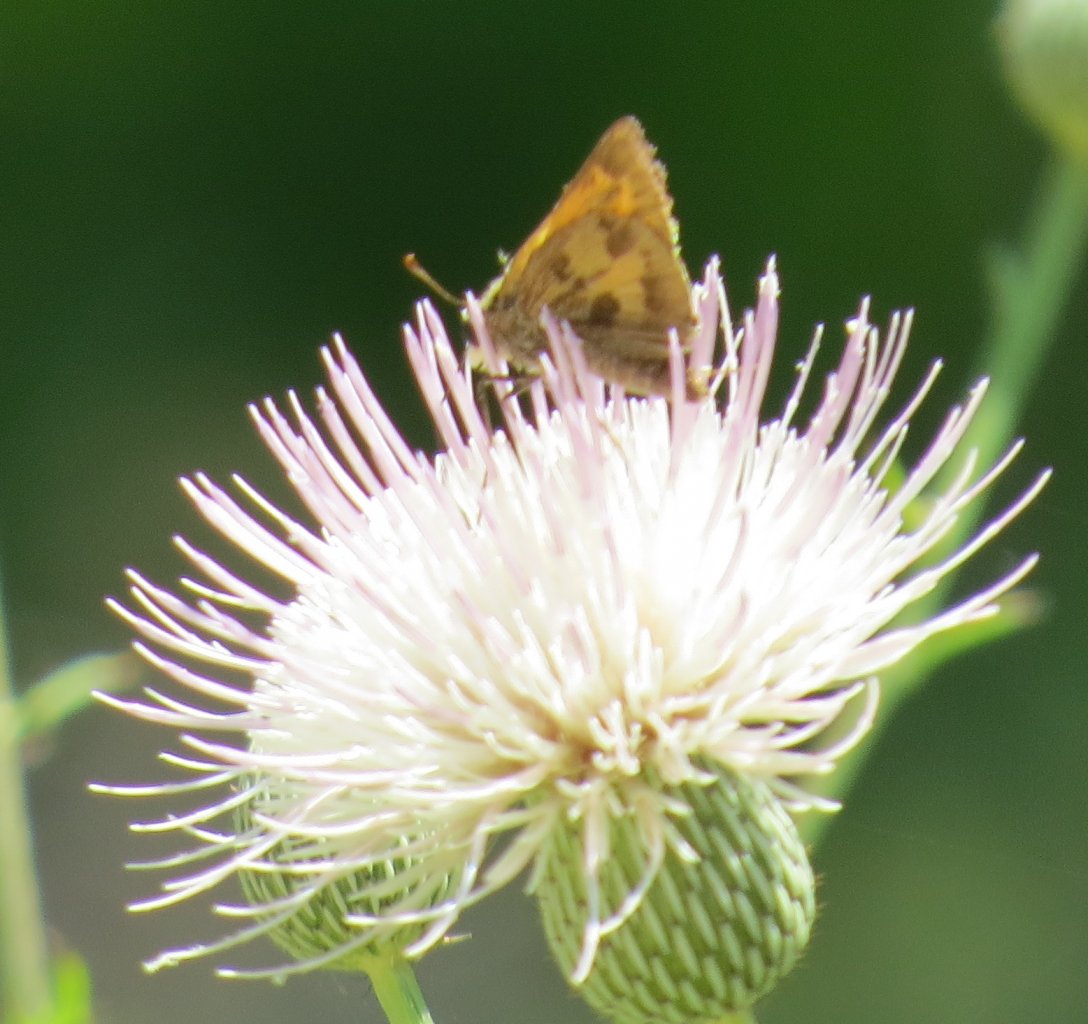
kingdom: Animalia
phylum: Arthropoda
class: Insecta
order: Lepidoptera
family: Hesperiidae
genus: Polites
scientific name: Polites vibex
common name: Whirlabout
